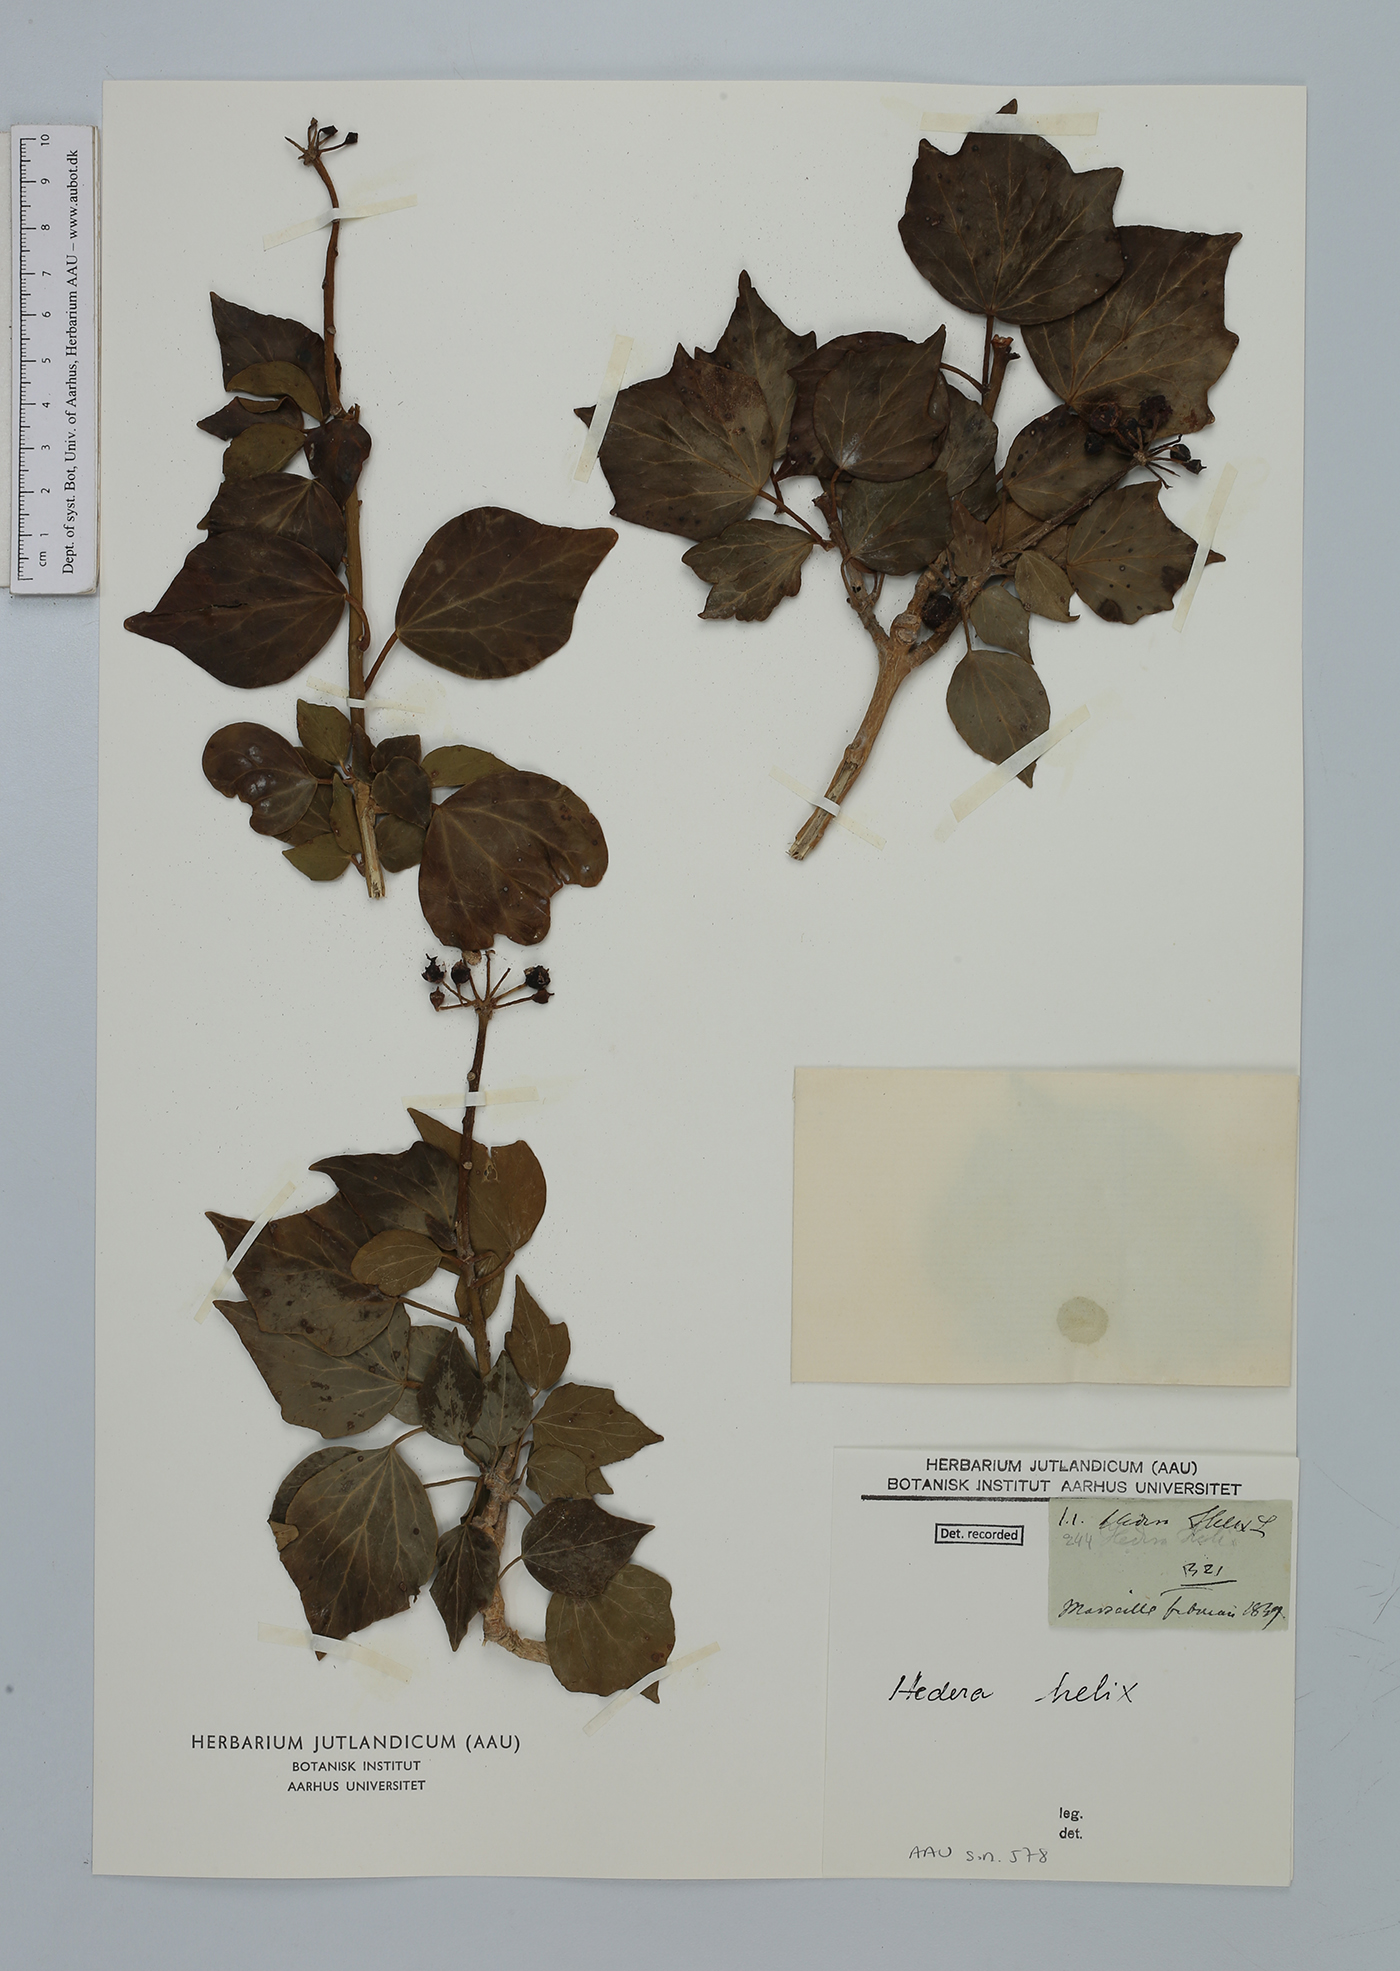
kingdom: Plantae
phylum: Tracheophyta
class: Magnoliopsida
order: Apiales
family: Araliaceae
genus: Hedera
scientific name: Hedera helix
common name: Ivy
